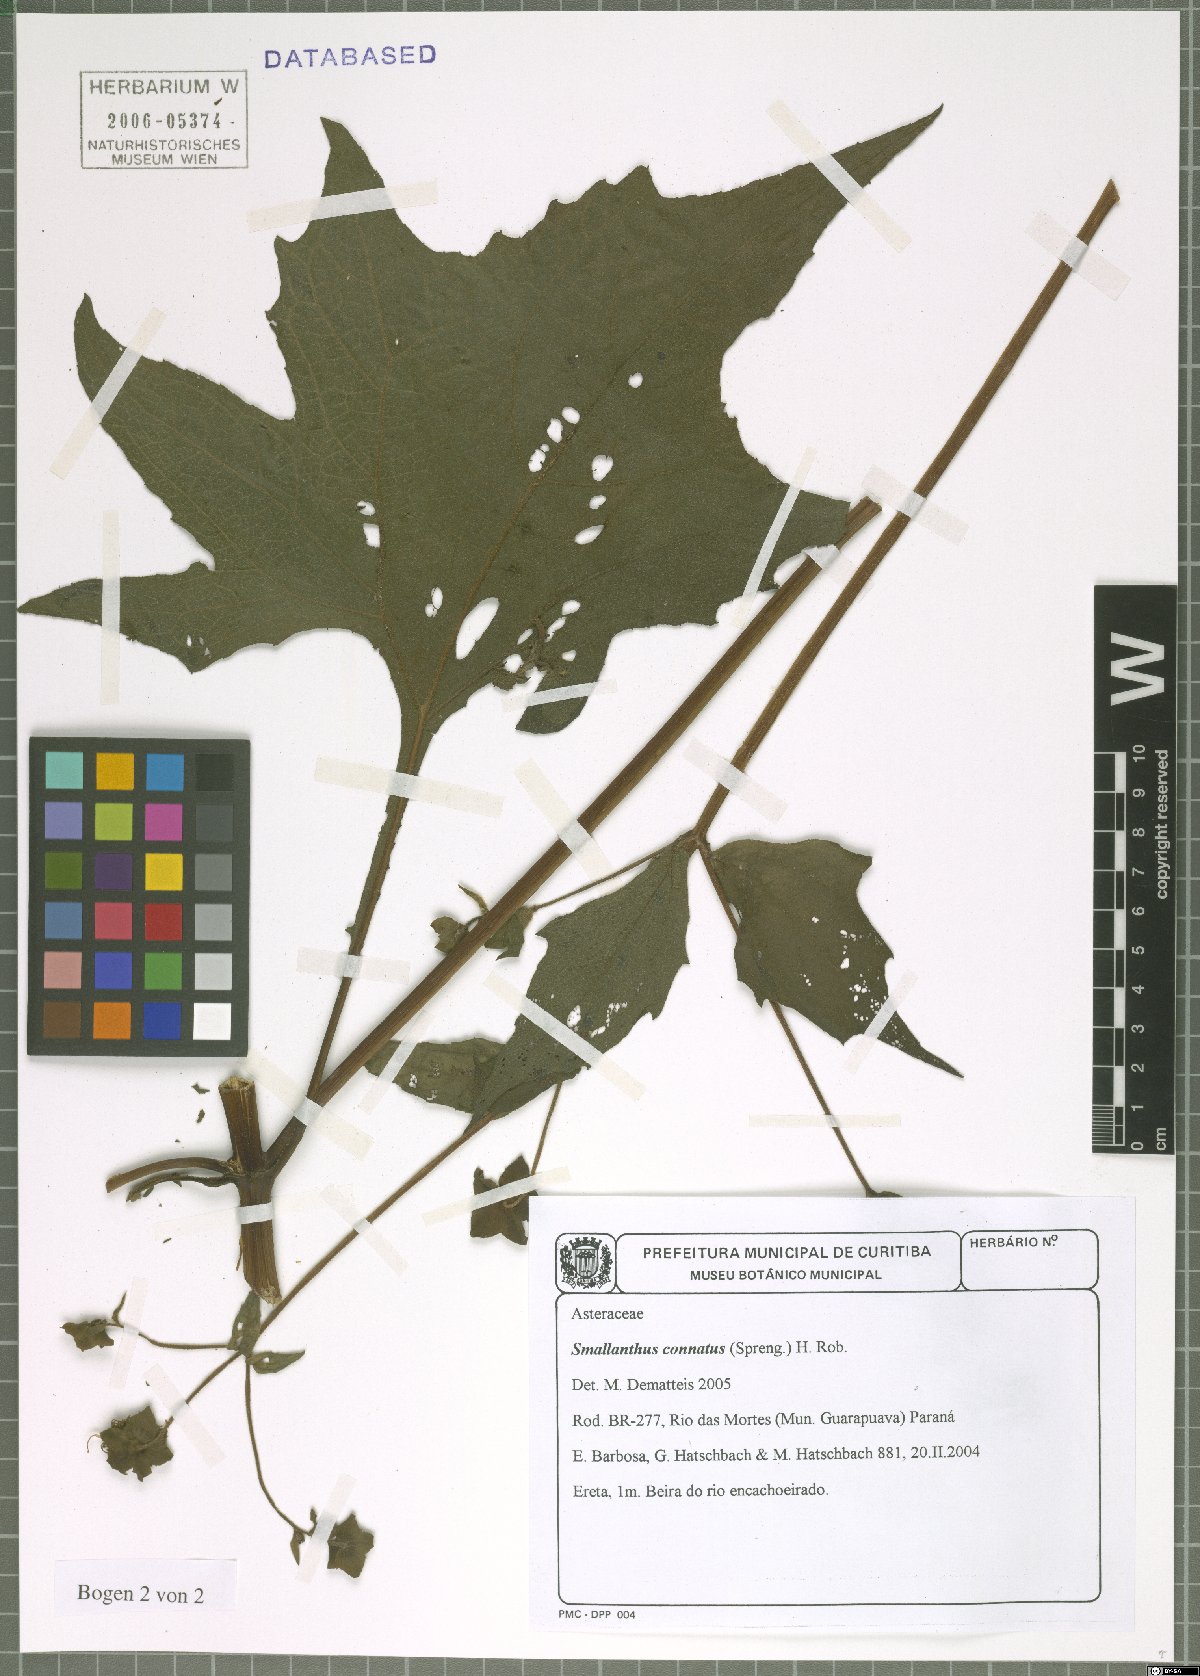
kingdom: Plantae
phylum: Tracheophyta
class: Magnoliopsida
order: Asterales
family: Asteraceae
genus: Smallanthus
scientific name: Smallanthus connatus
